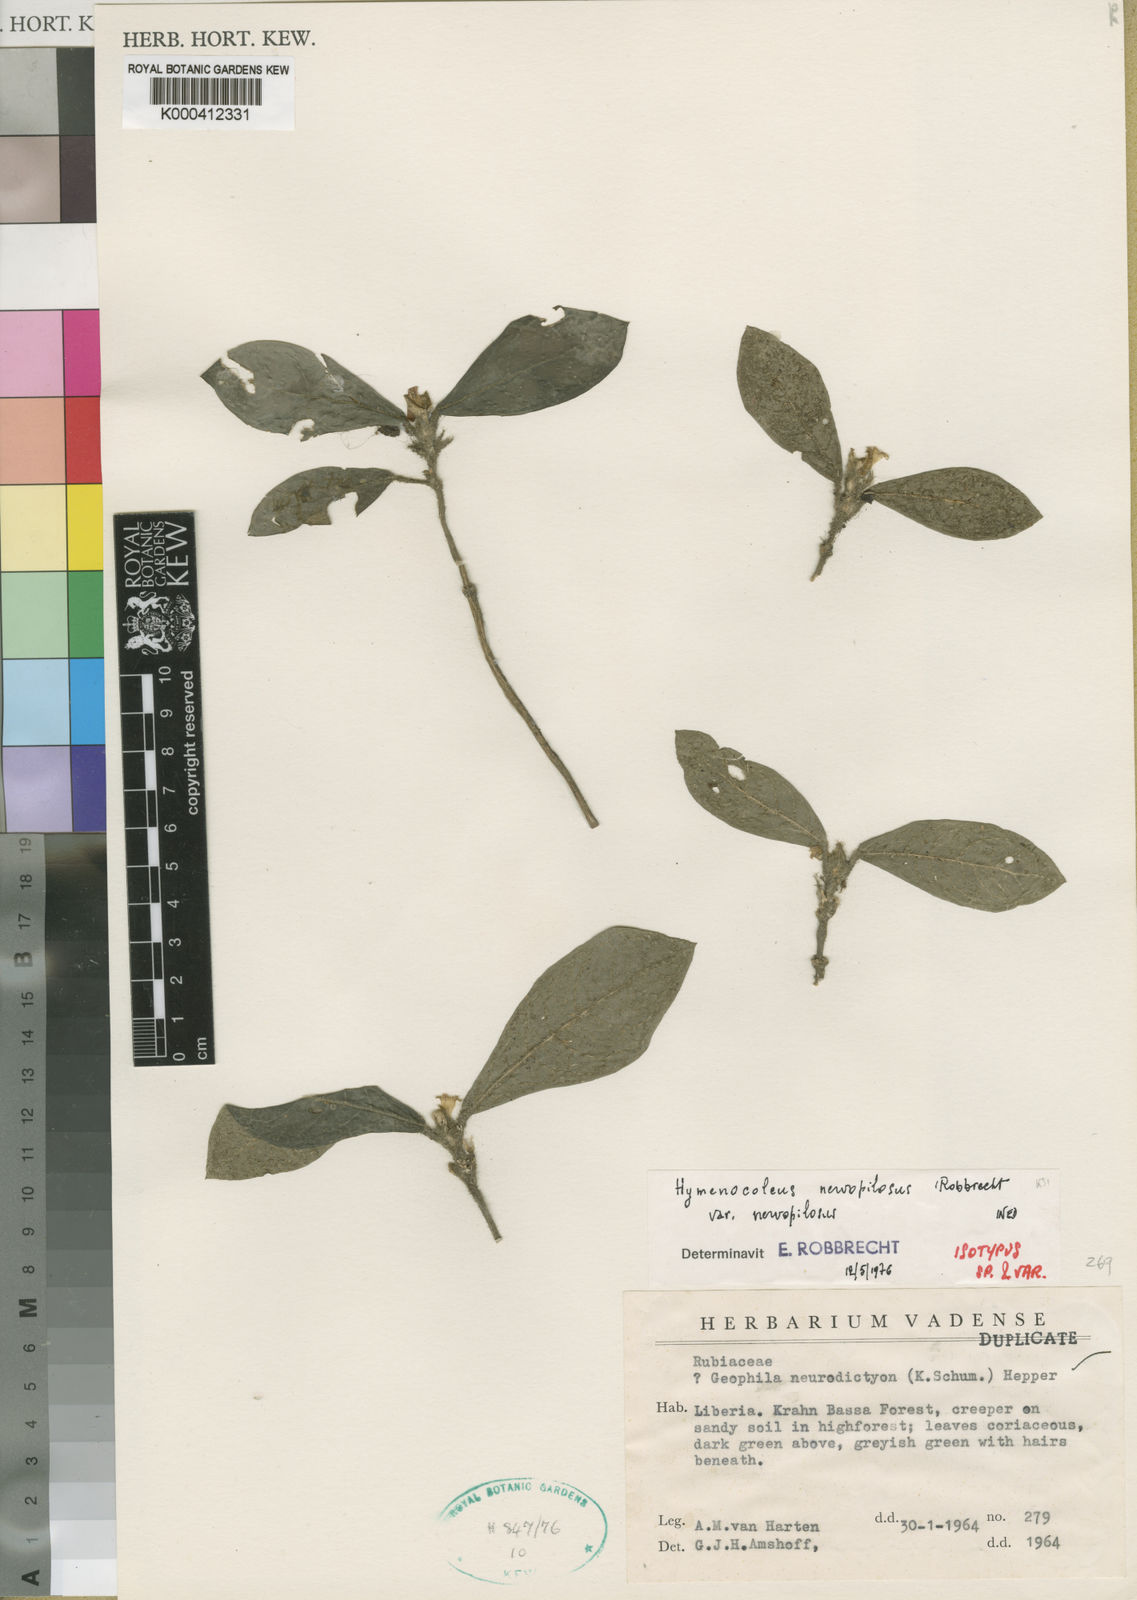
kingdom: Plantae
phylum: Tracheophyta
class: Magnoliopsida
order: Gentianales
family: Rubiaceae
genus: Hymenocoleus
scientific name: Hymenocoleus nervopilosus
